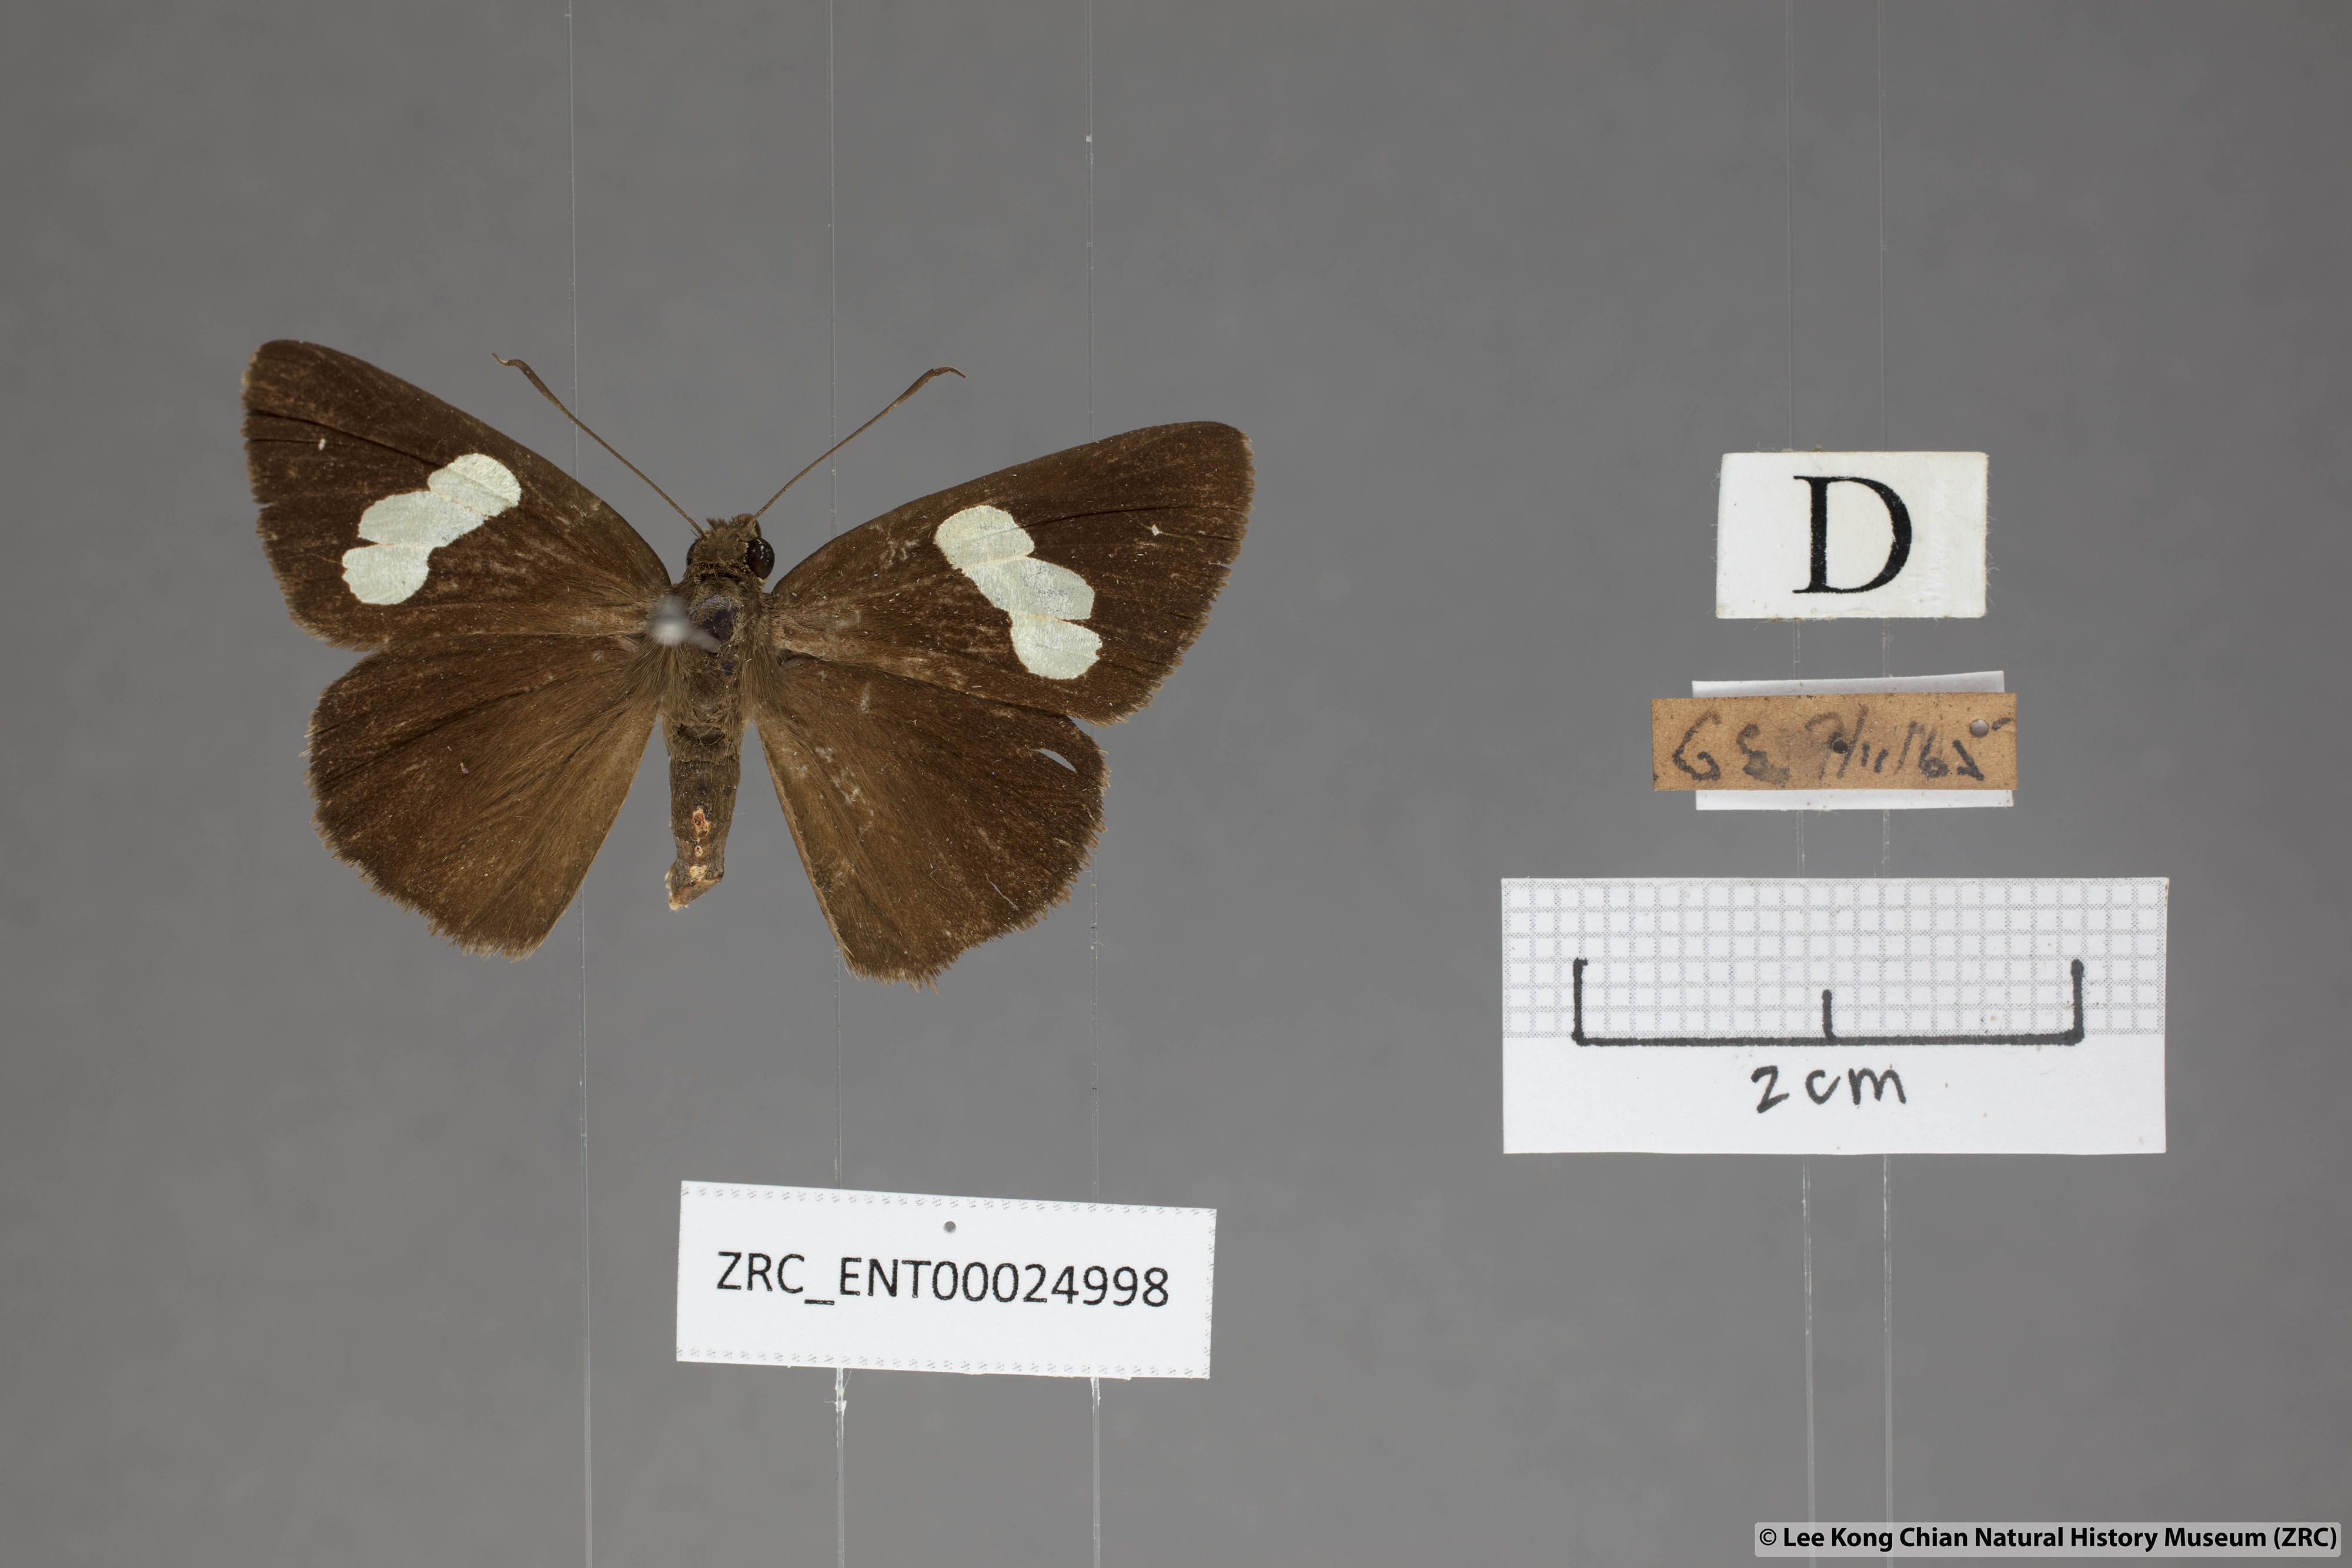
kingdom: Animalia
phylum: Arthropoda
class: Insecta
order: Lepidoptera
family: Hesperiidae
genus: Notocrypta
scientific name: Notocrypta clavata
